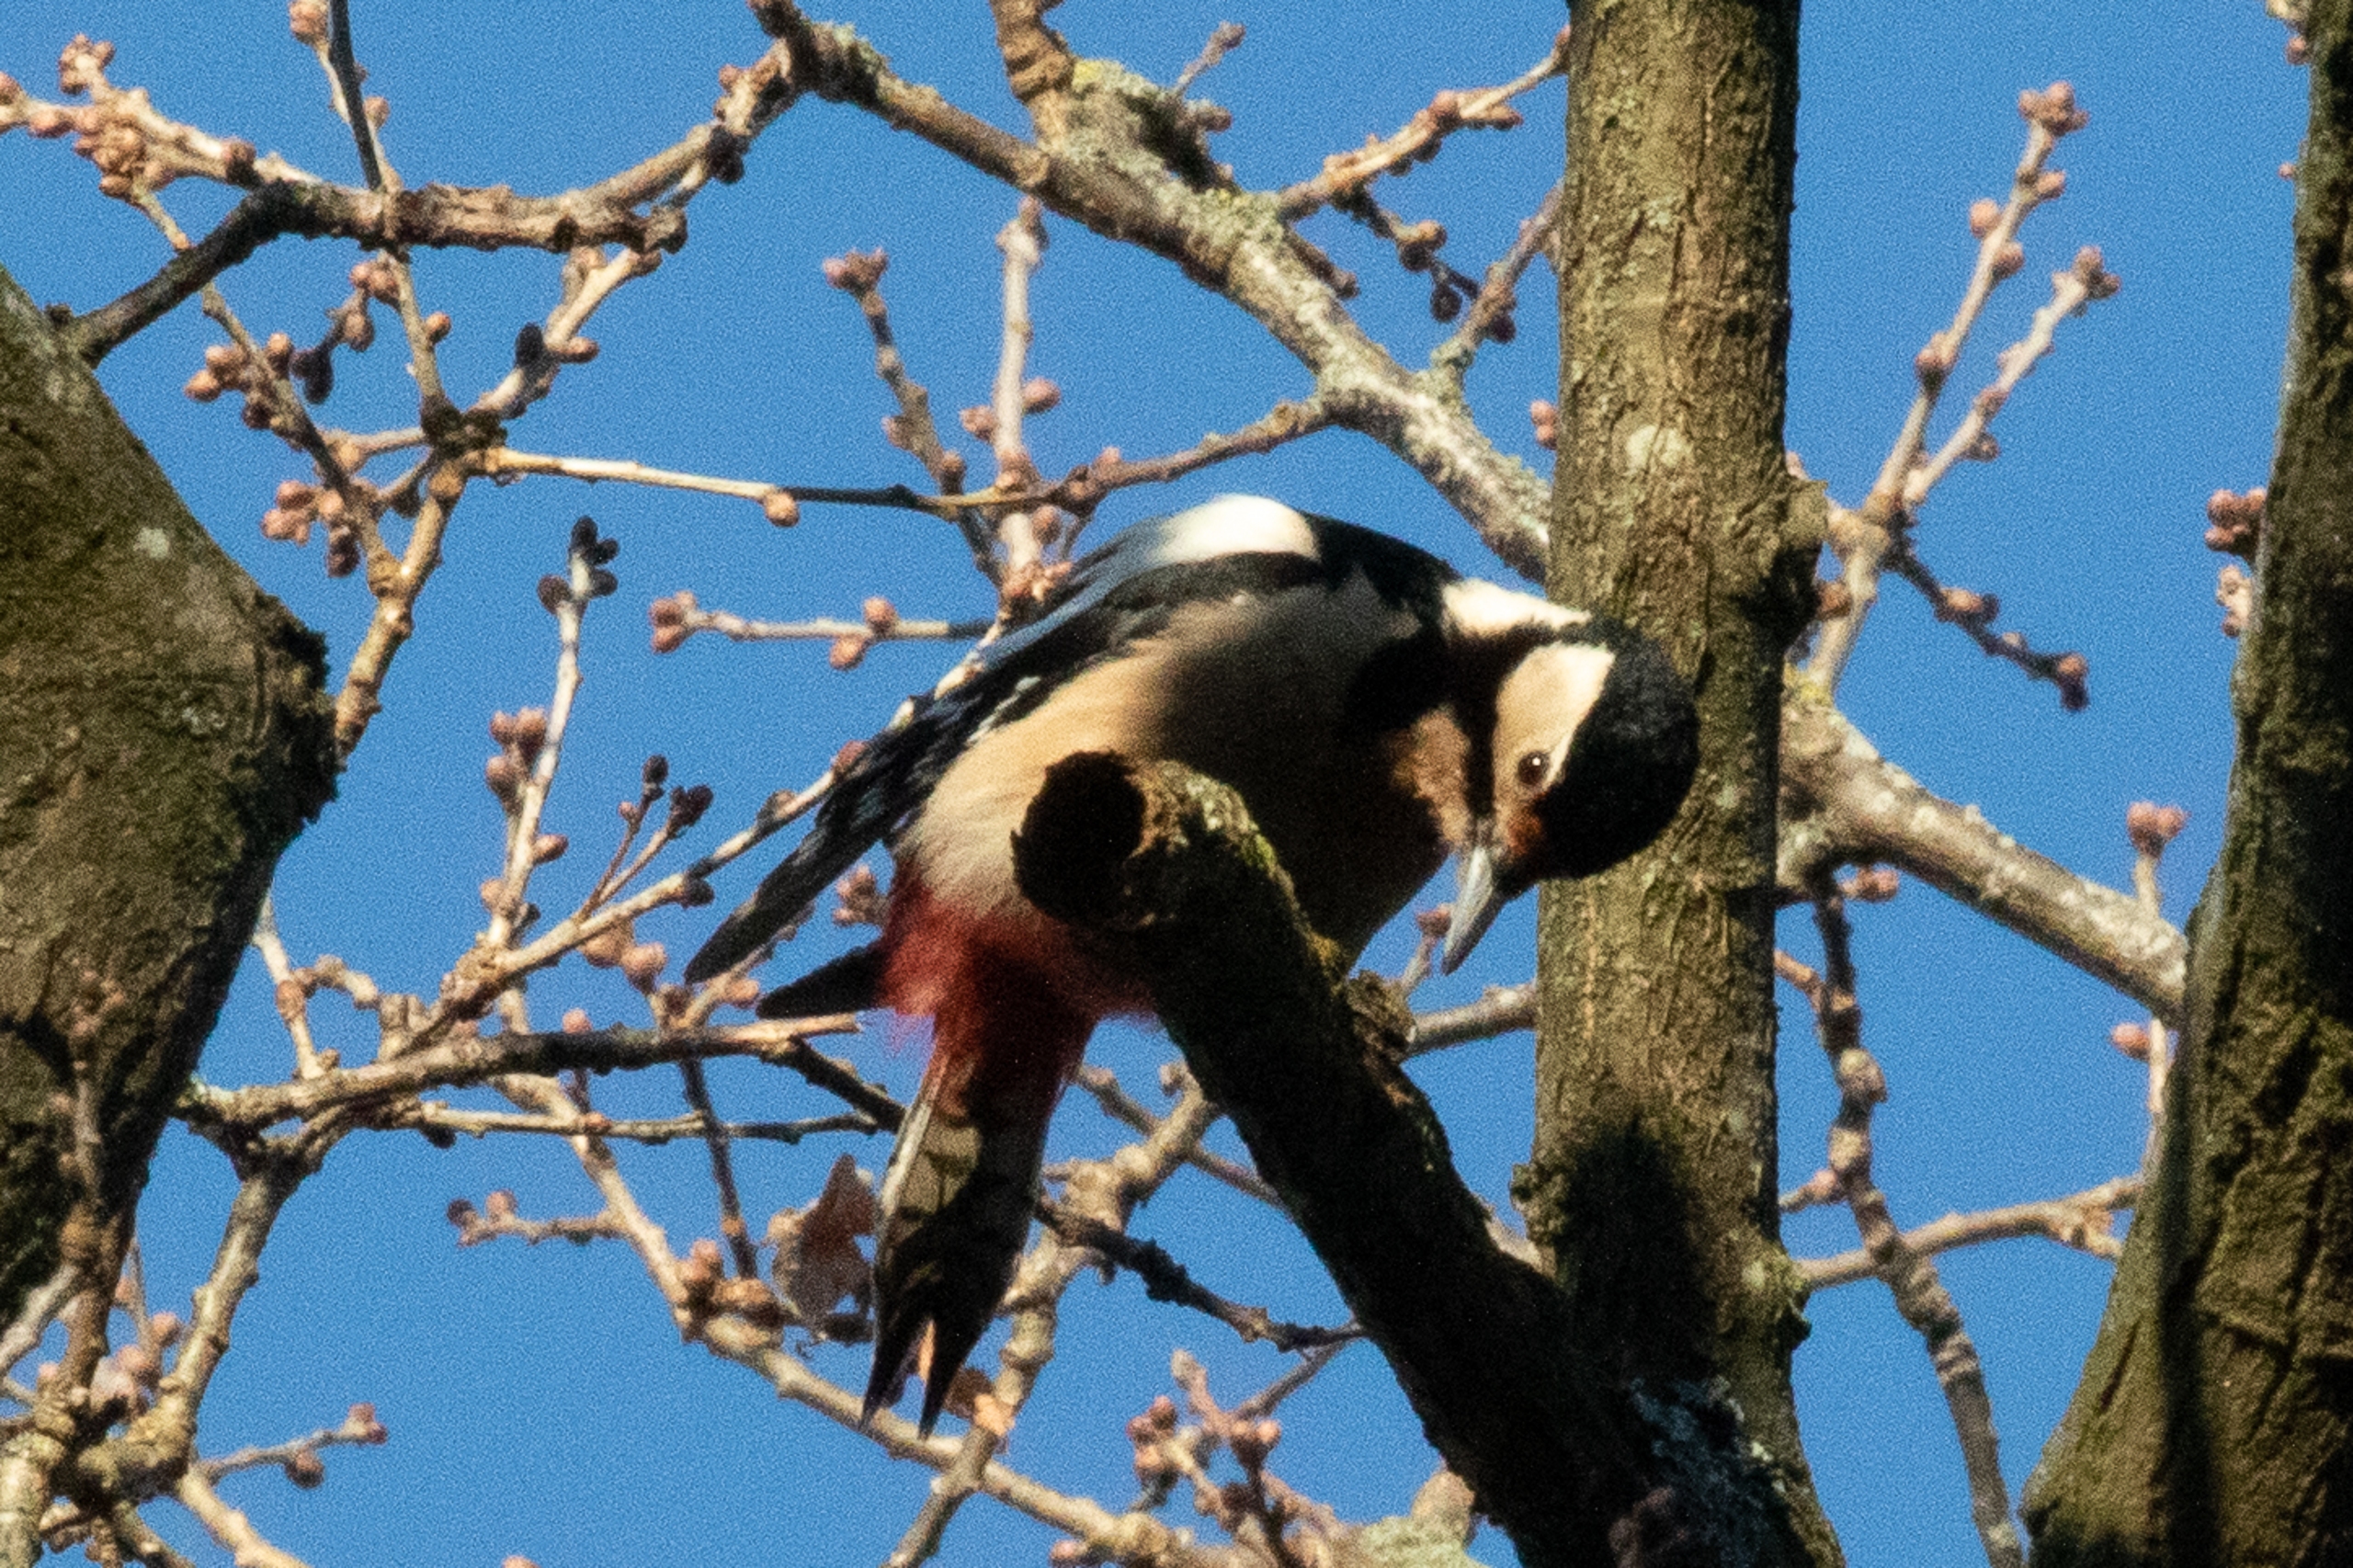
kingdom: Animalia
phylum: Chordata
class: Aves
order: Piciformes
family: Picidae
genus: Dendrocopos
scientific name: Dendrocopos major
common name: Stor flagspætte
